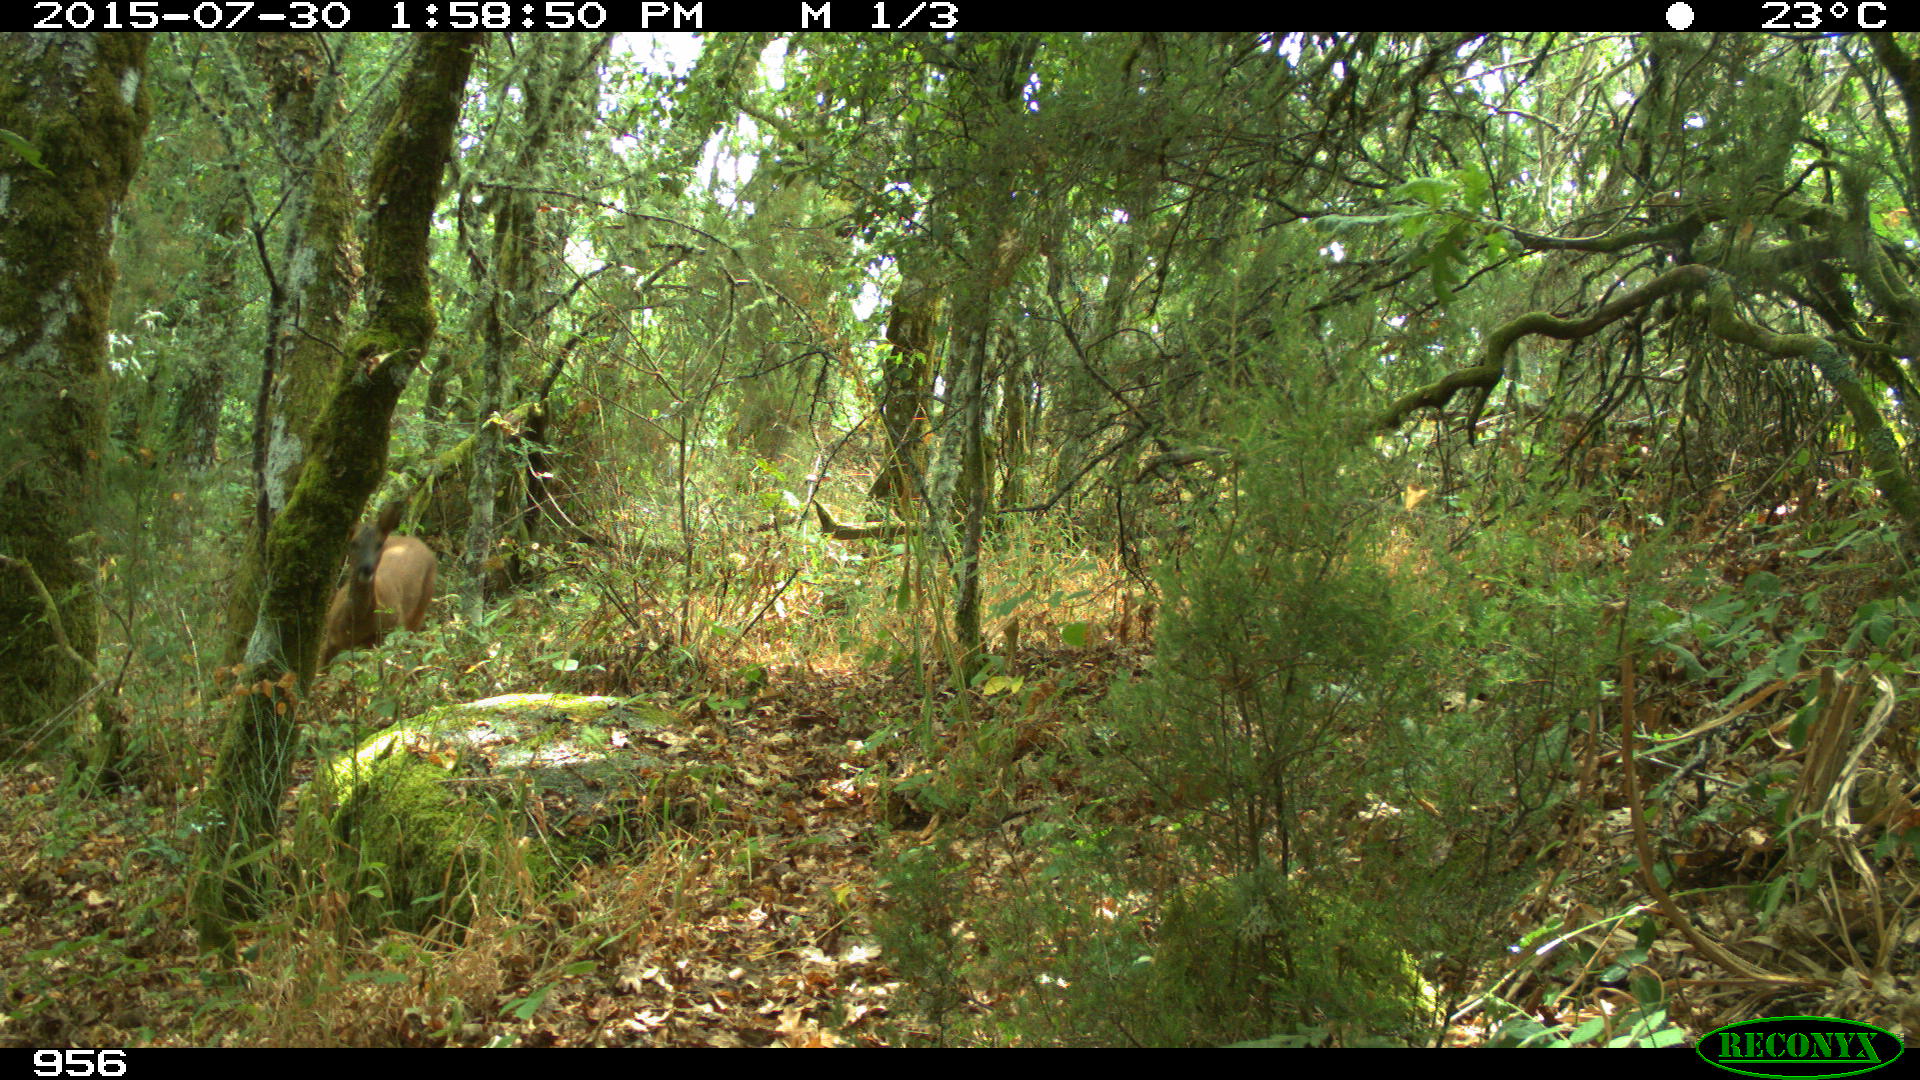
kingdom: Animalia
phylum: Chordata
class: Mammalia
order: Artiodactyla
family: Cervidae
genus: Capreolus
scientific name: Capreolus capreolus
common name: Western roe deer
